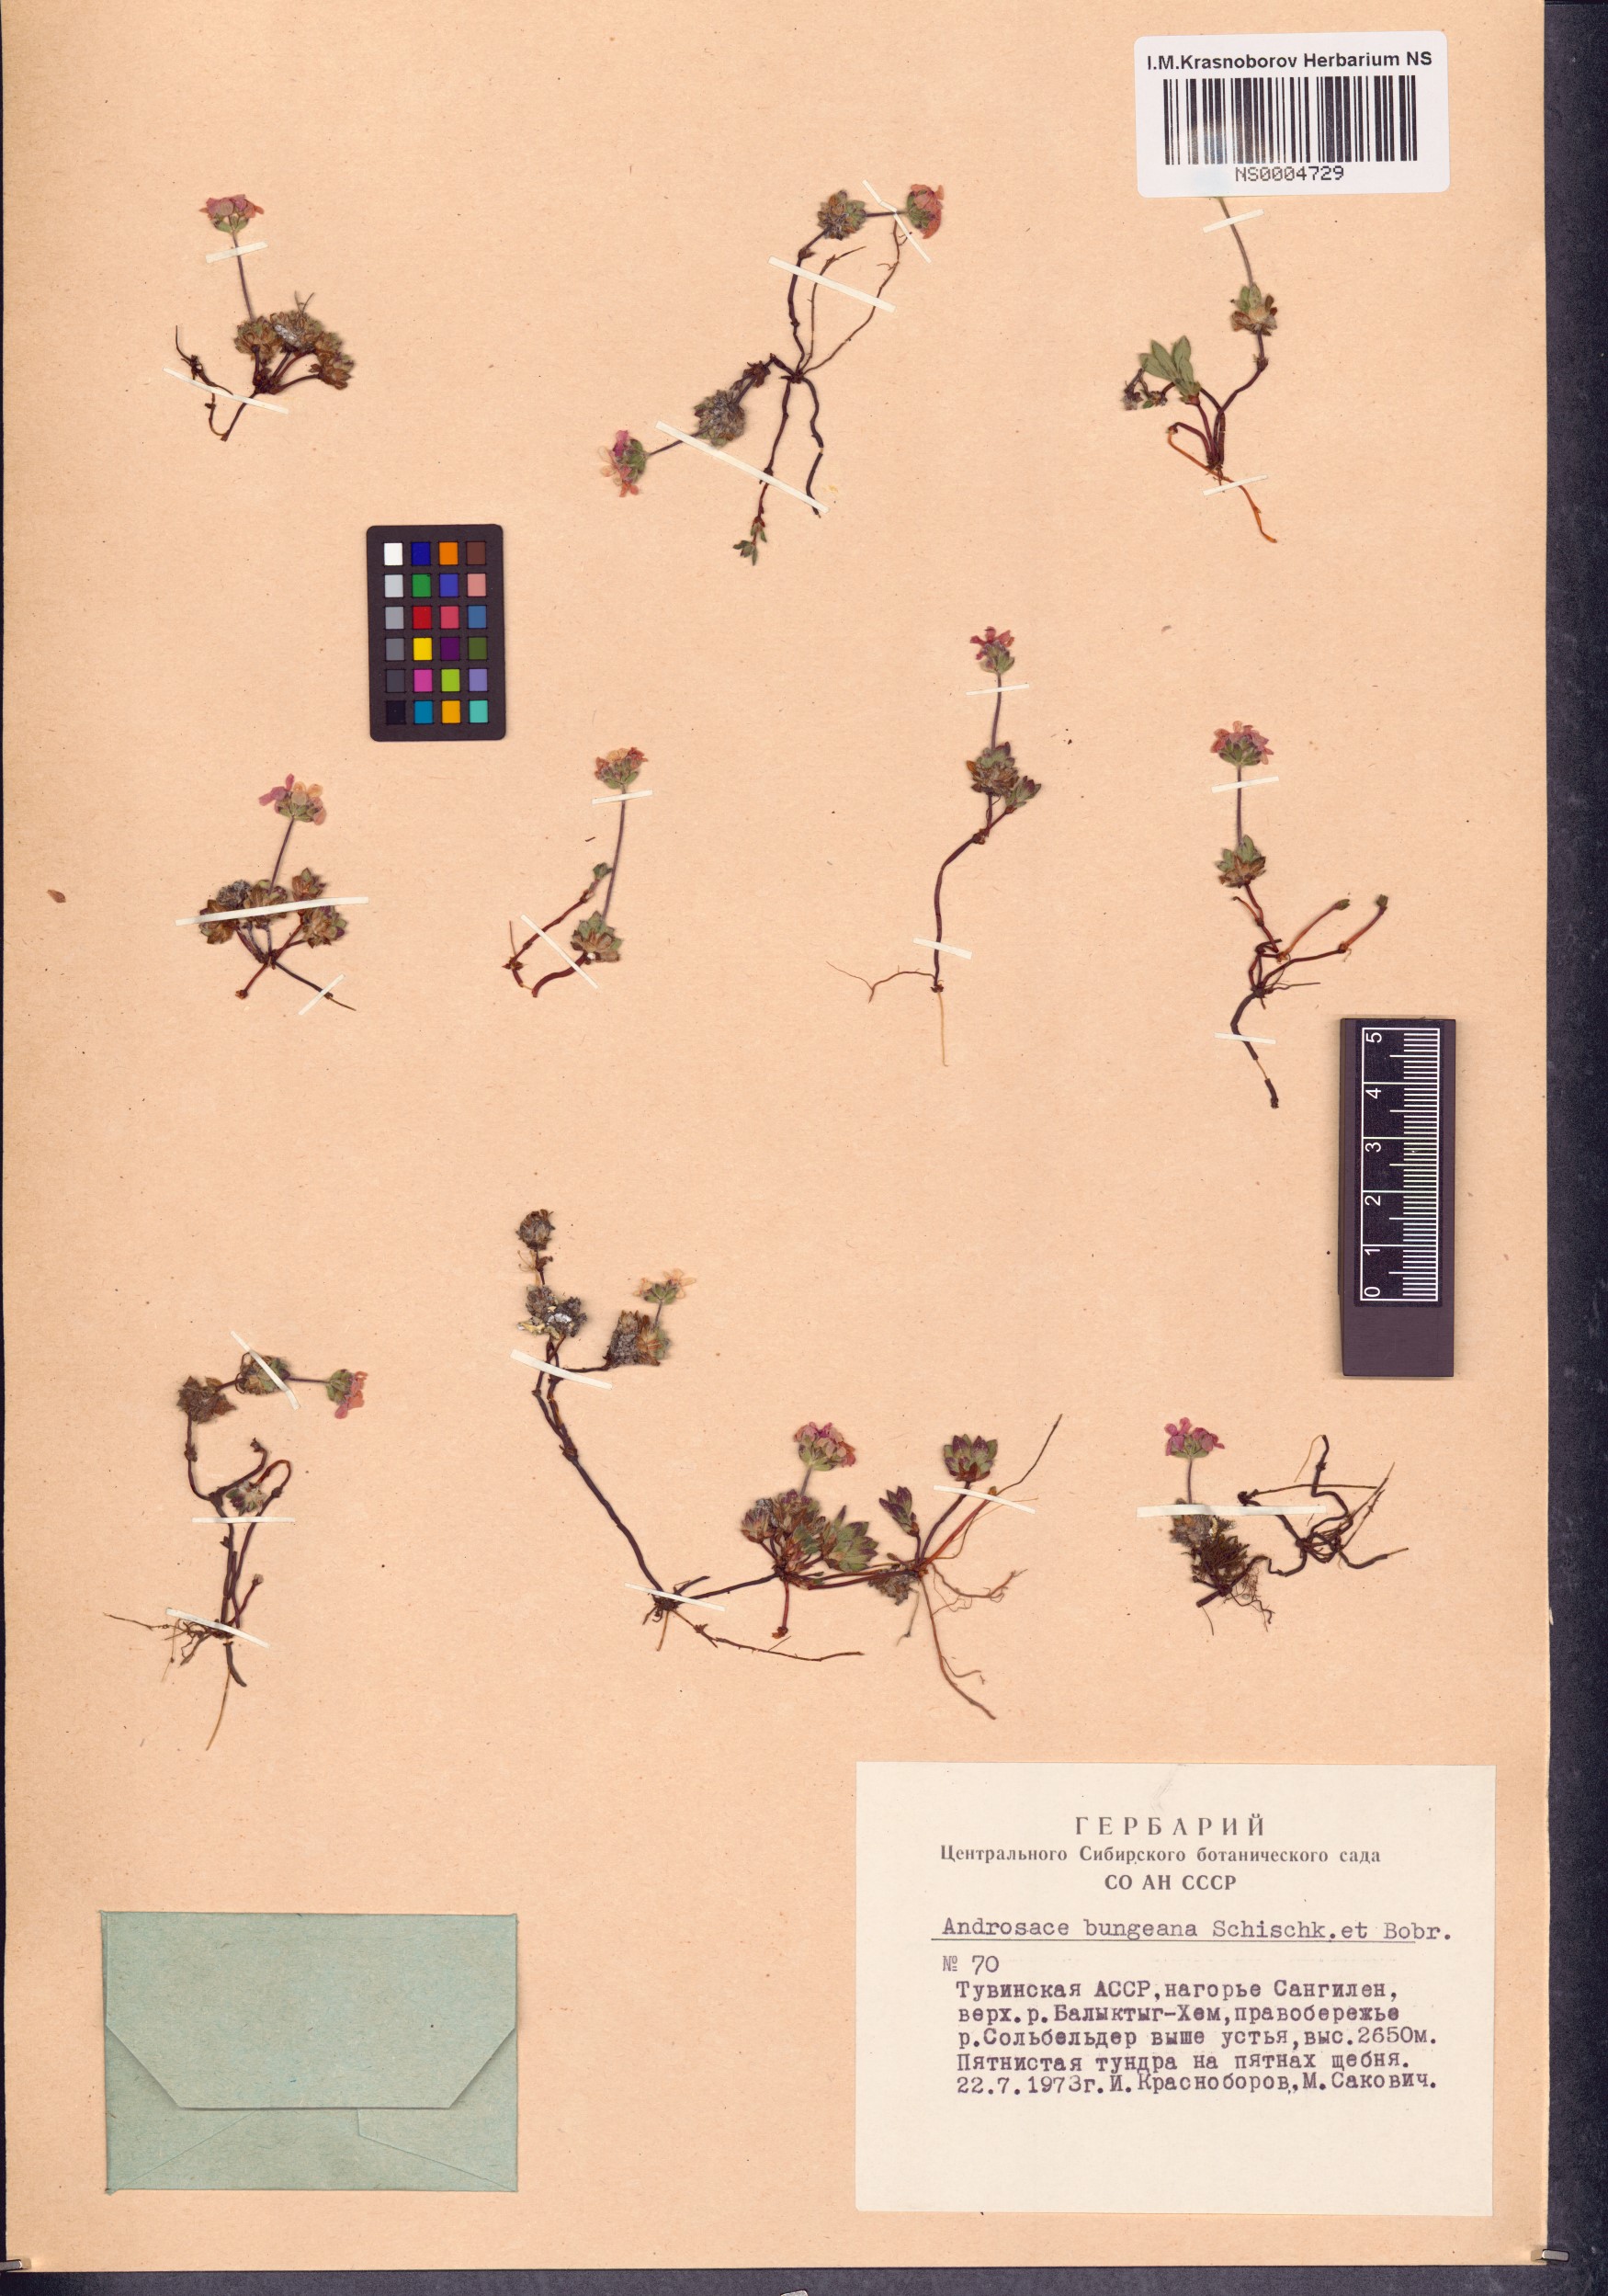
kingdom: Plantae
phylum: Tracheophyta
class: Magnoliopsida
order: Ericales
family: Primulaceae
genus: Androsace
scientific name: Androsace bungeana
